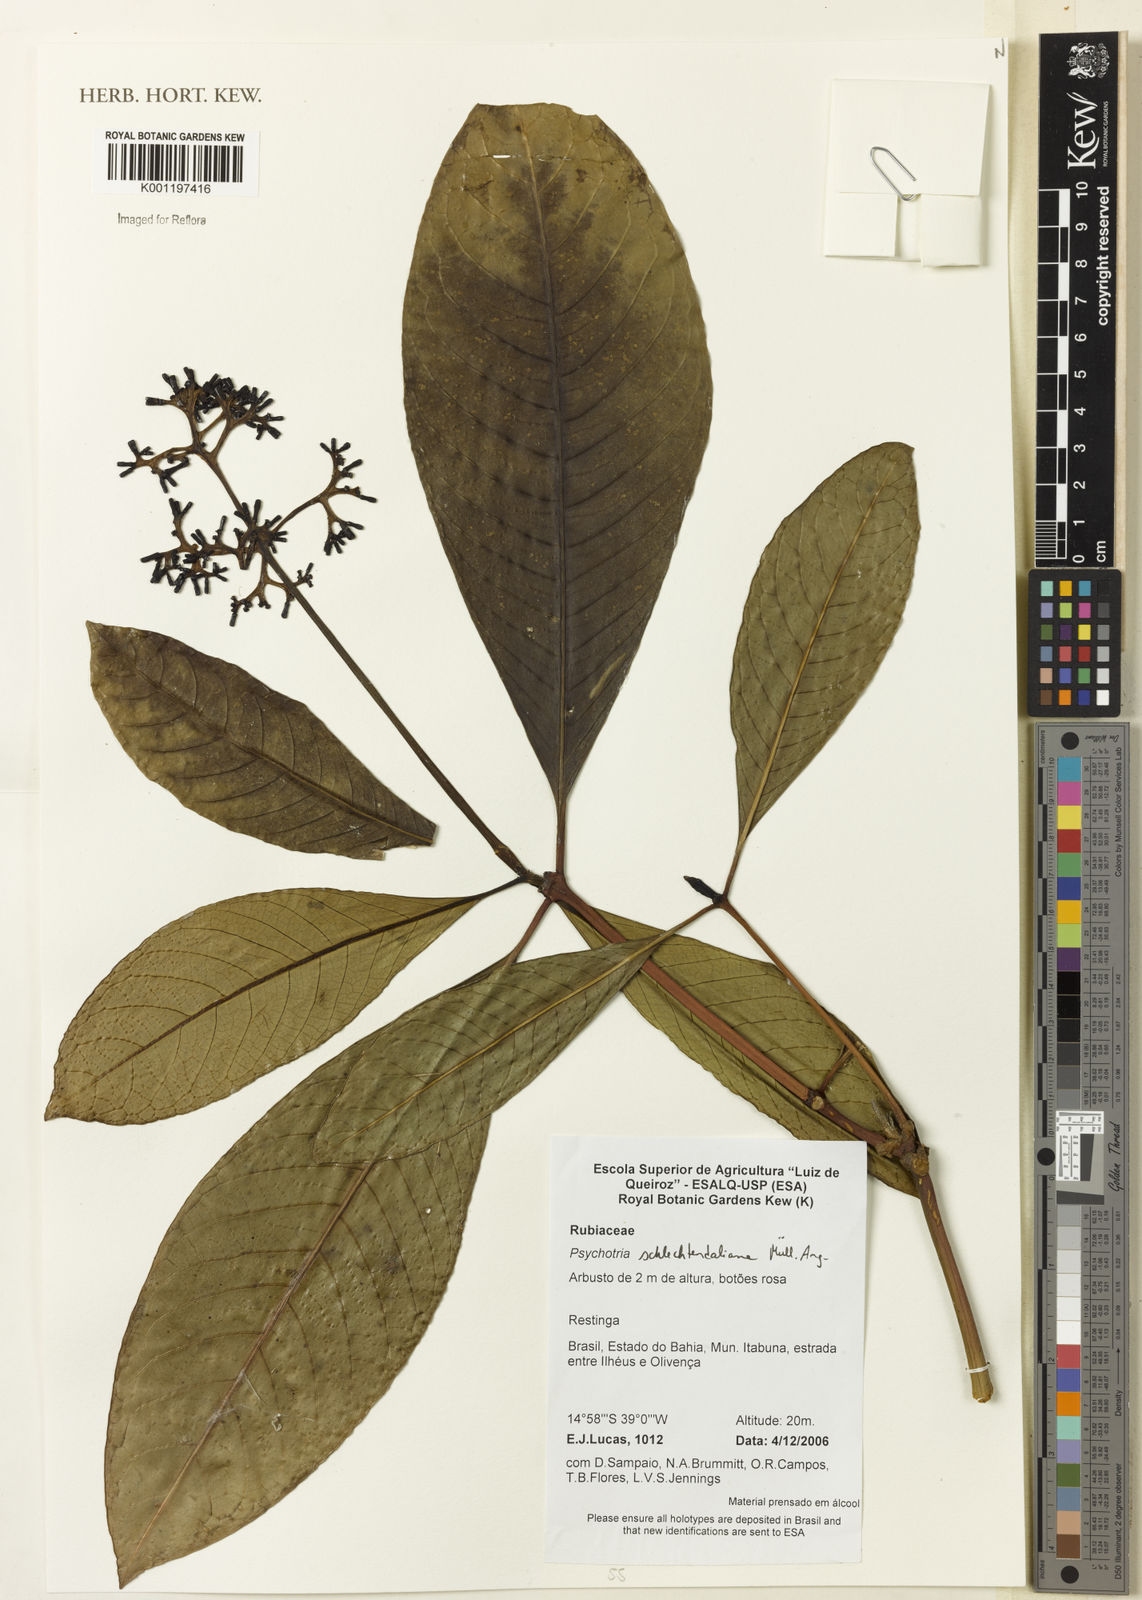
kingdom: Plantae
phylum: Tracheophyta
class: Magnoliopsida
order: Gentianales
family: Rubiaceae
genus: Psychotria
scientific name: Psychotria
